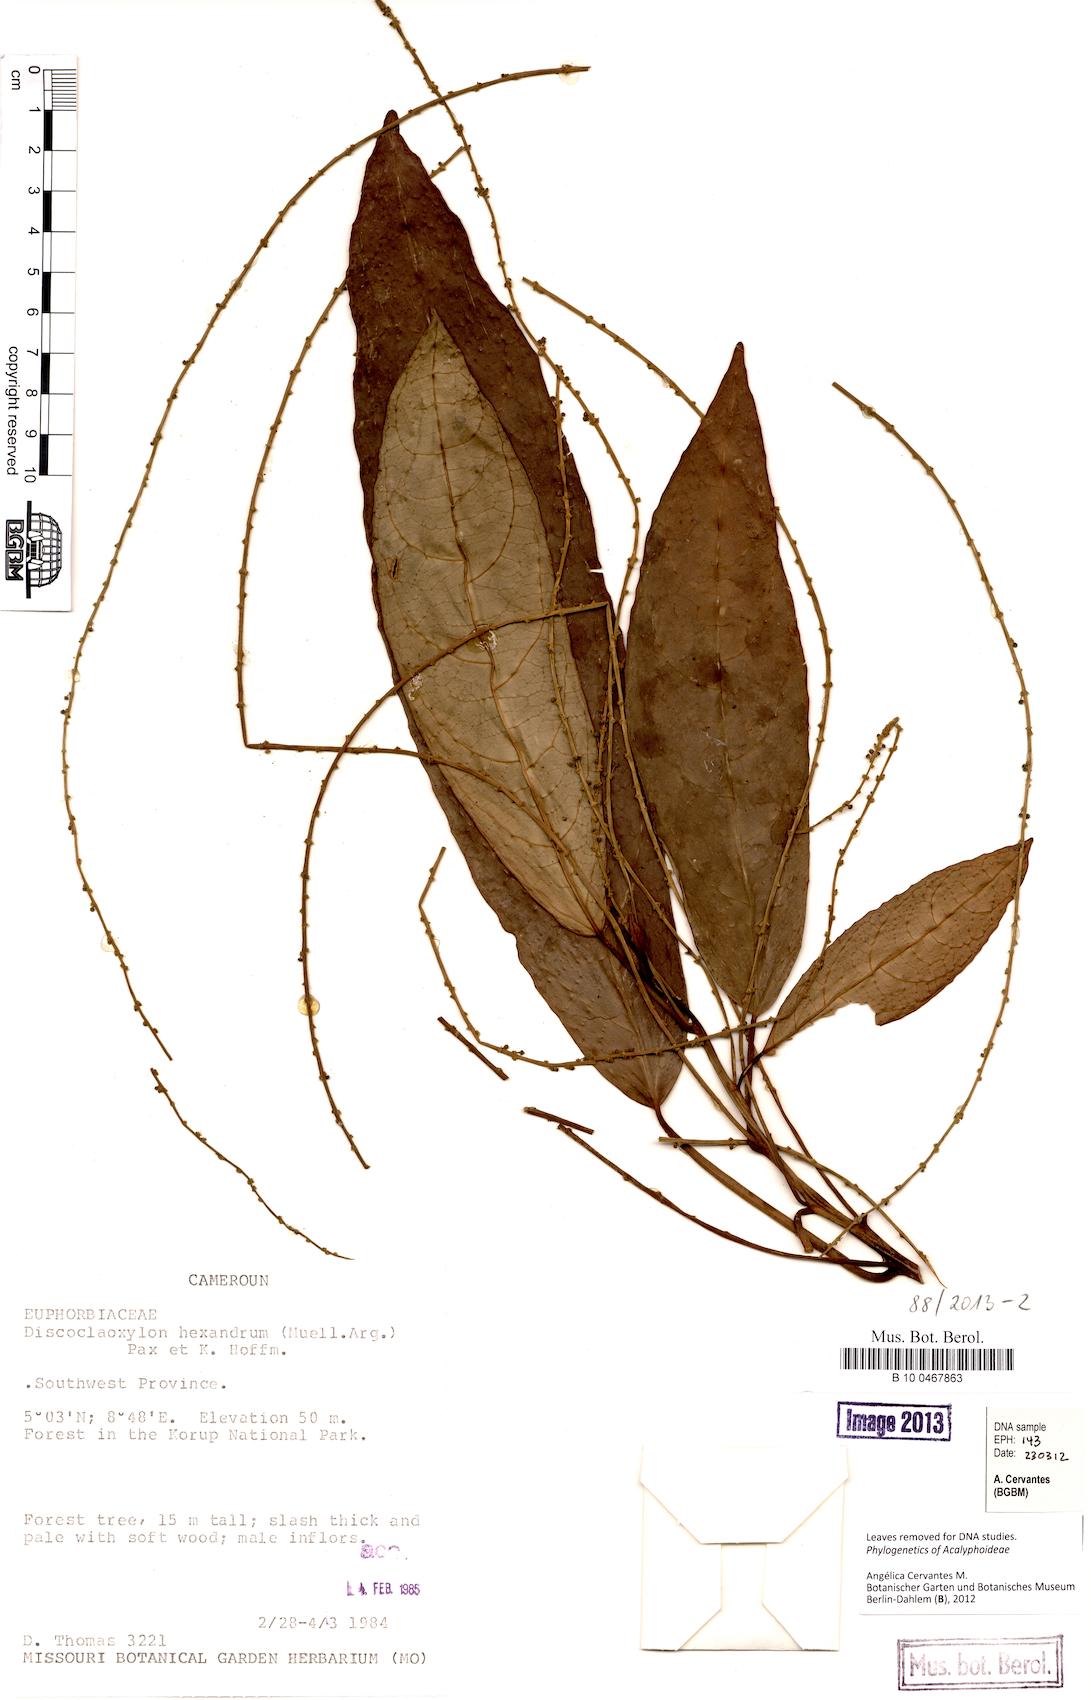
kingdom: Plantae
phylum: Tracheophyta
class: Magnoliopsida
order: Malpighiales
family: Euphorbiaceae
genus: Discoclaoxylon
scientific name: Discoclaoxylon hexandrum
